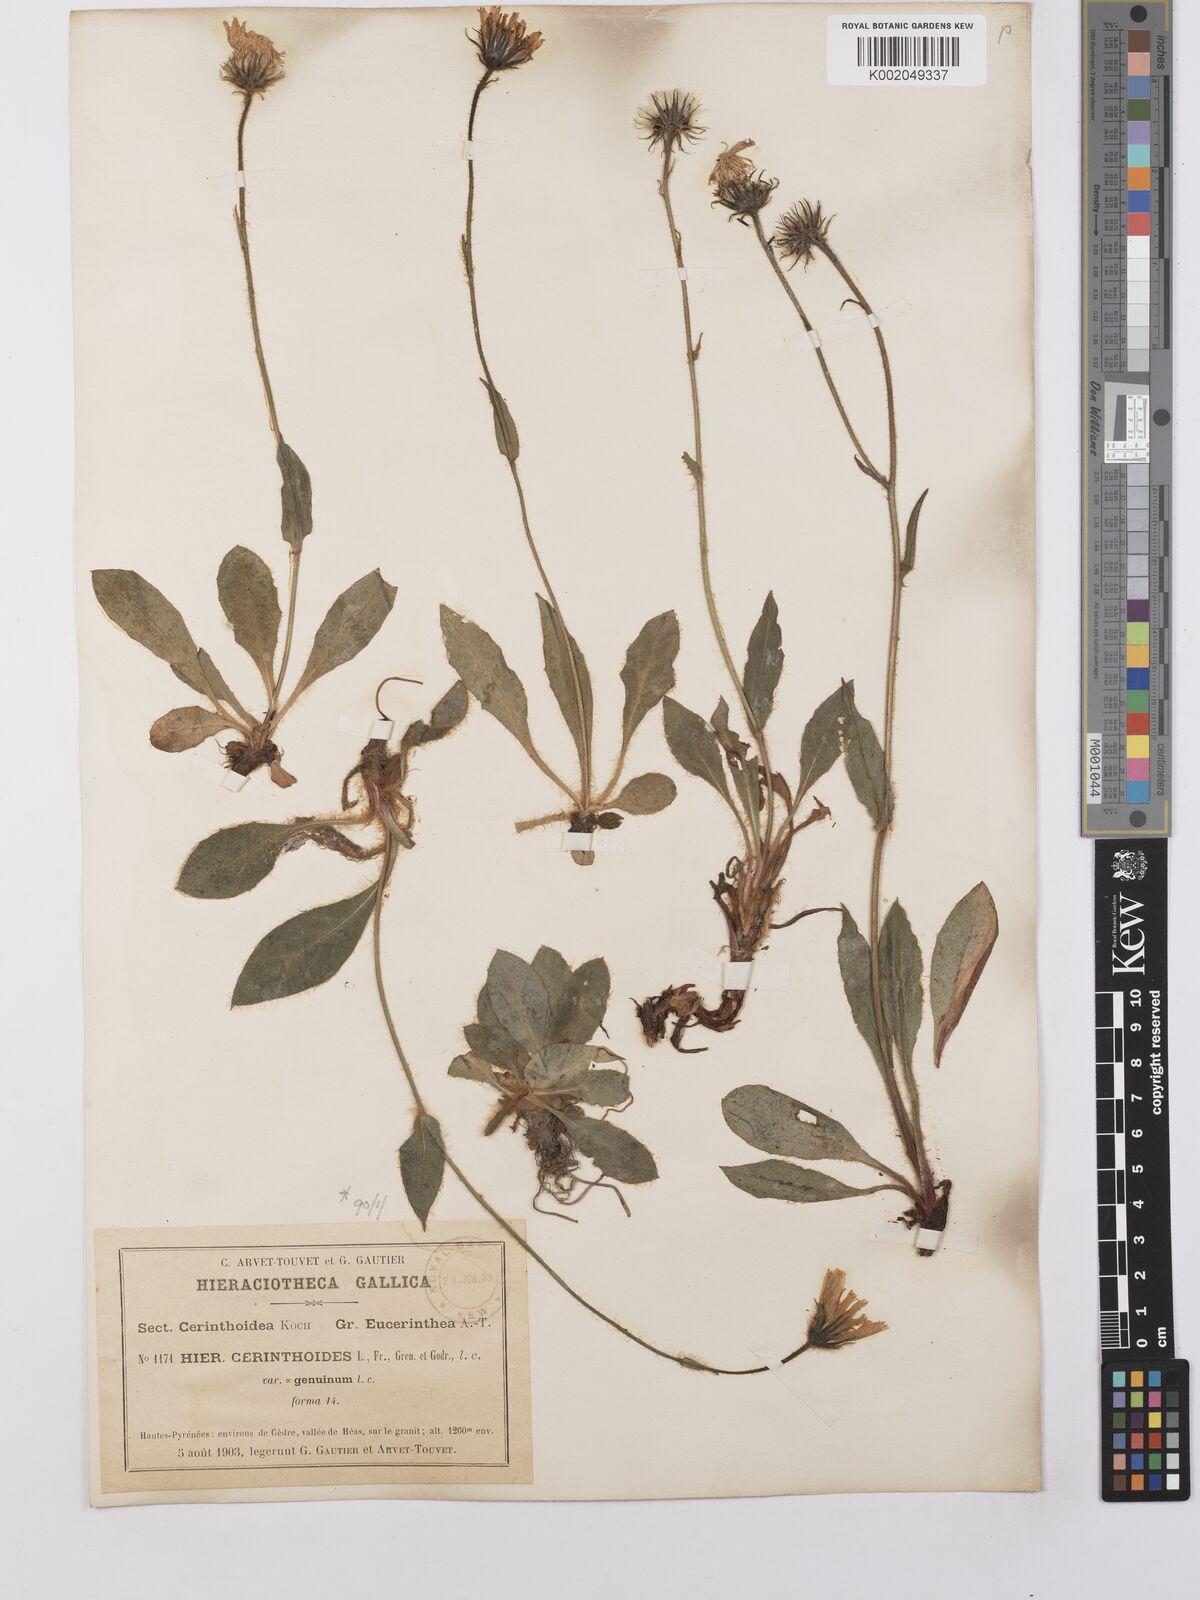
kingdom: Plantae
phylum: Tracheophyta
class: Magnoliopsida
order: Asterales
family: Asteraceae
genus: Hieracium
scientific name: Hieracium cerinthoides
